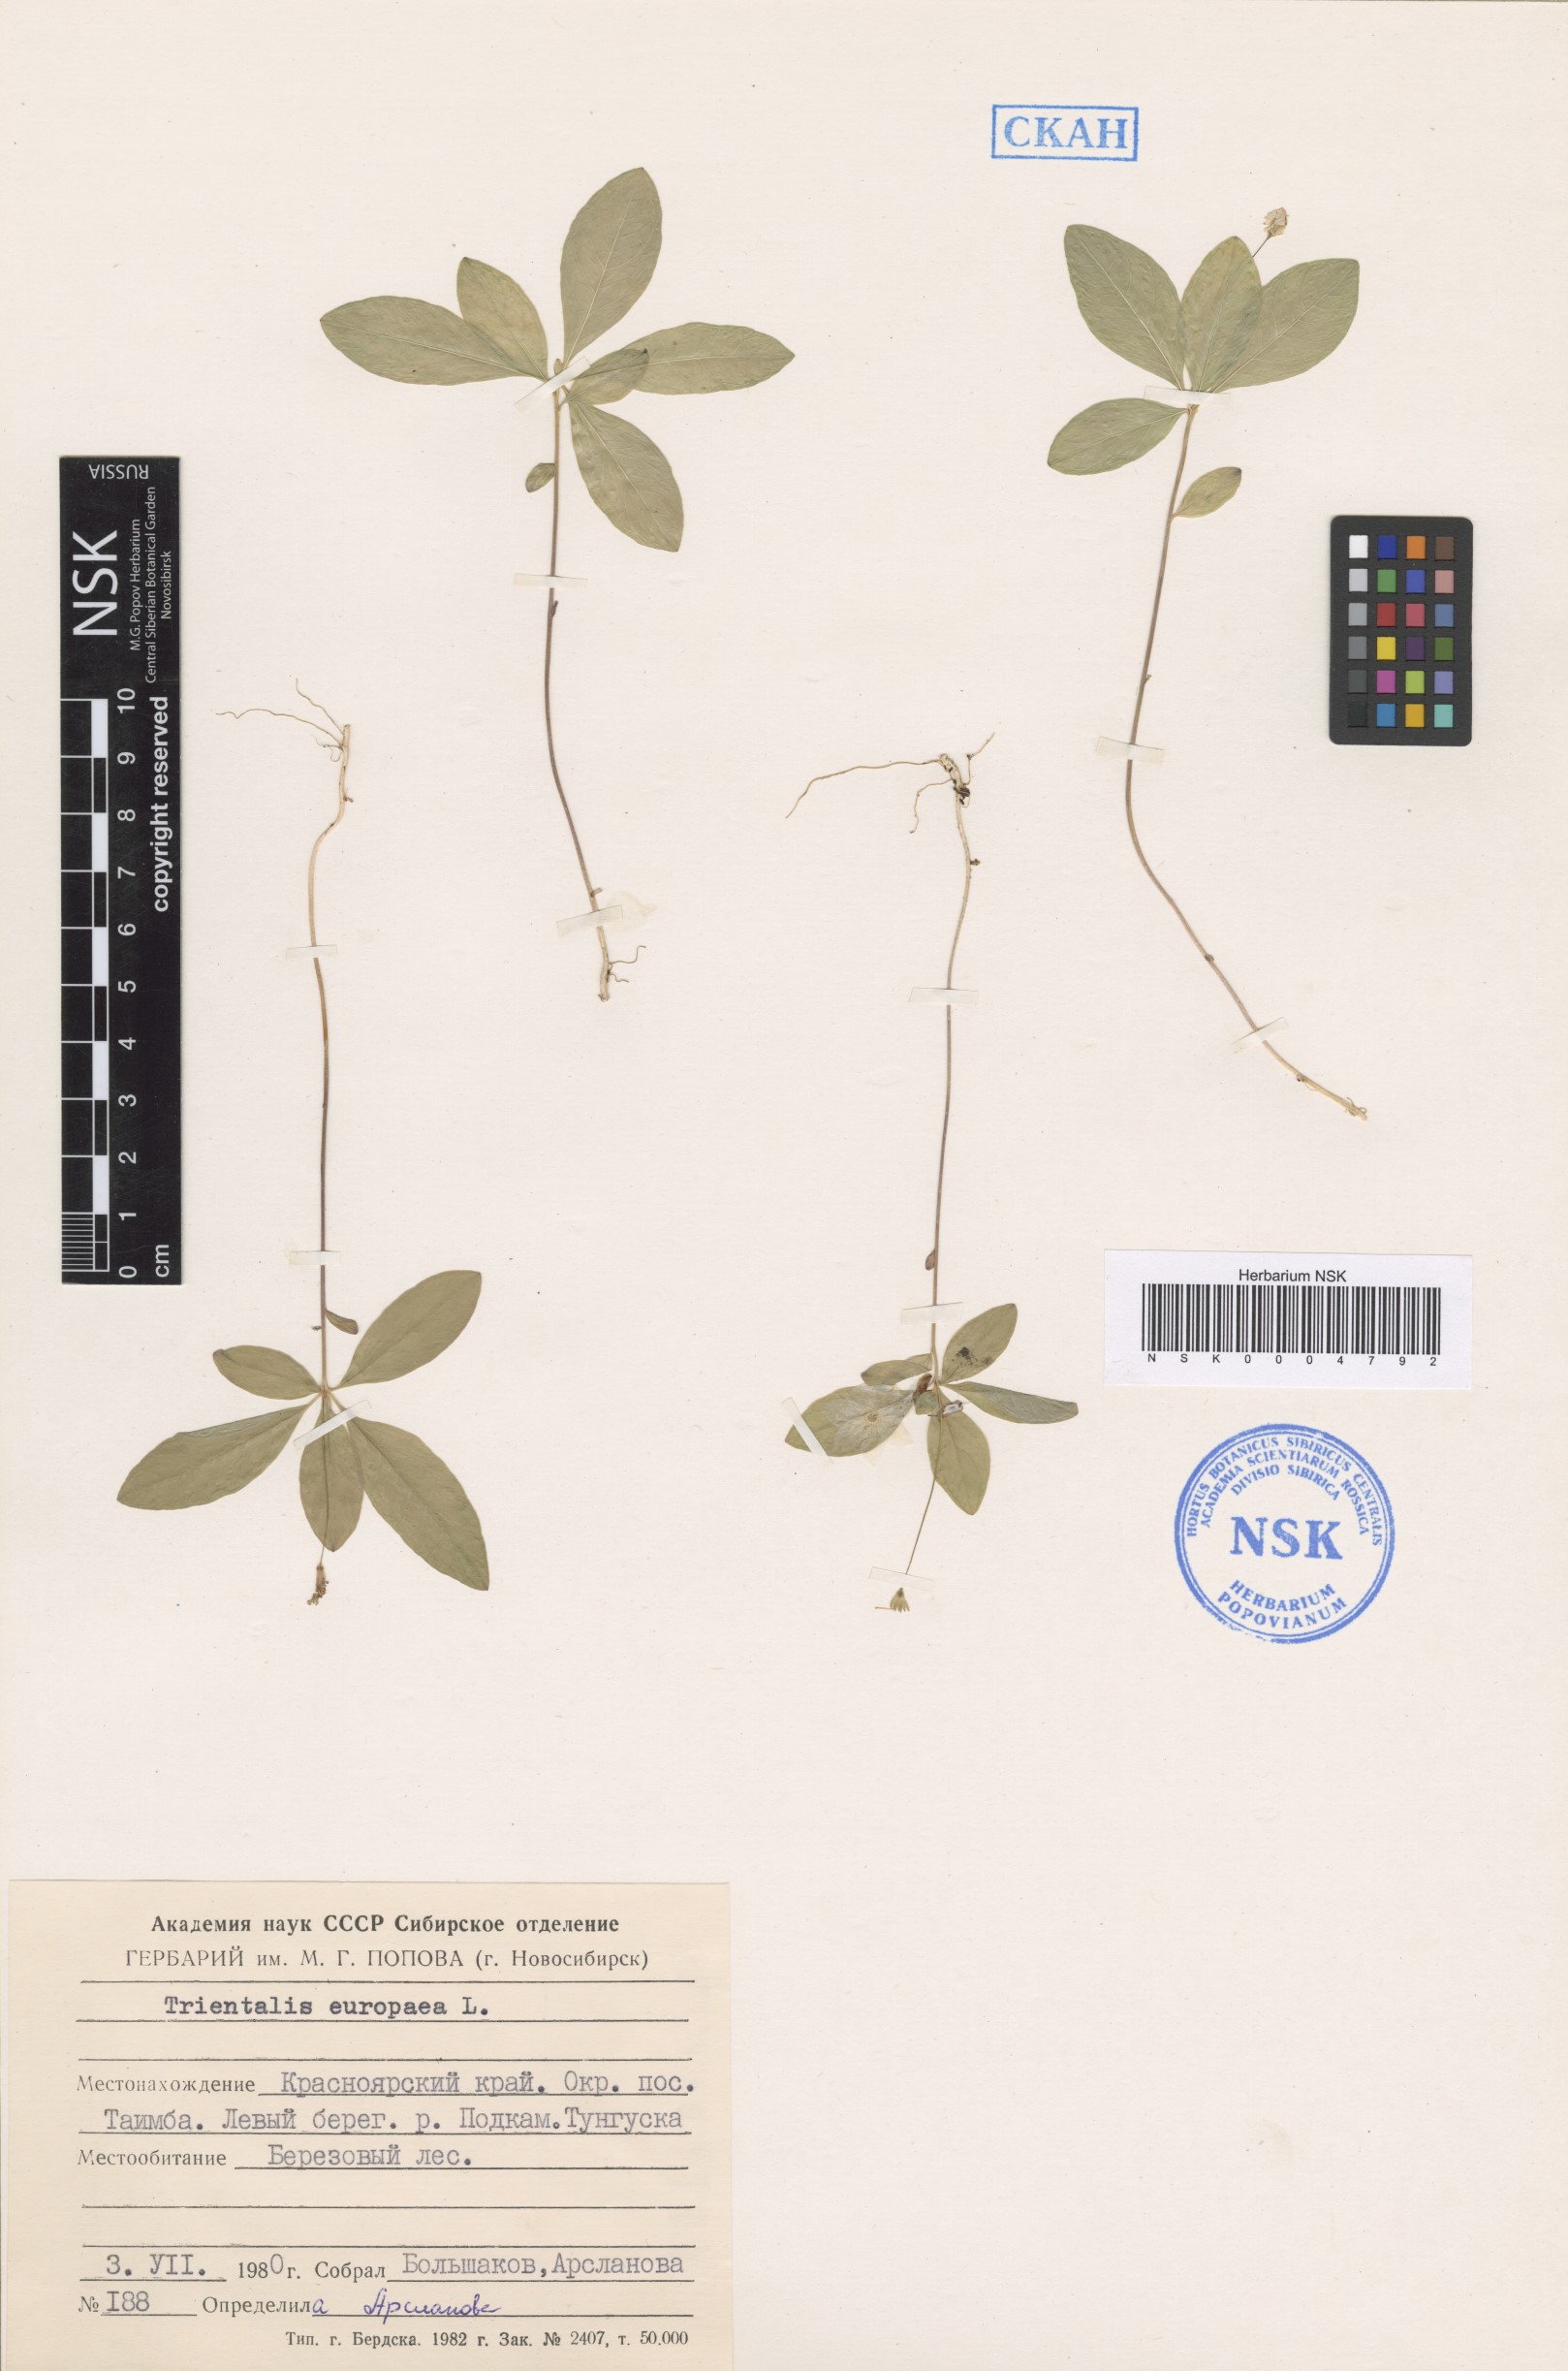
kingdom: Plantae
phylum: Tracheophyta
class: Magnoliopsida
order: Ericales
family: Primulaceae
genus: Lysimachia
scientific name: Lysimachia europaea
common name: Arctic starflower
